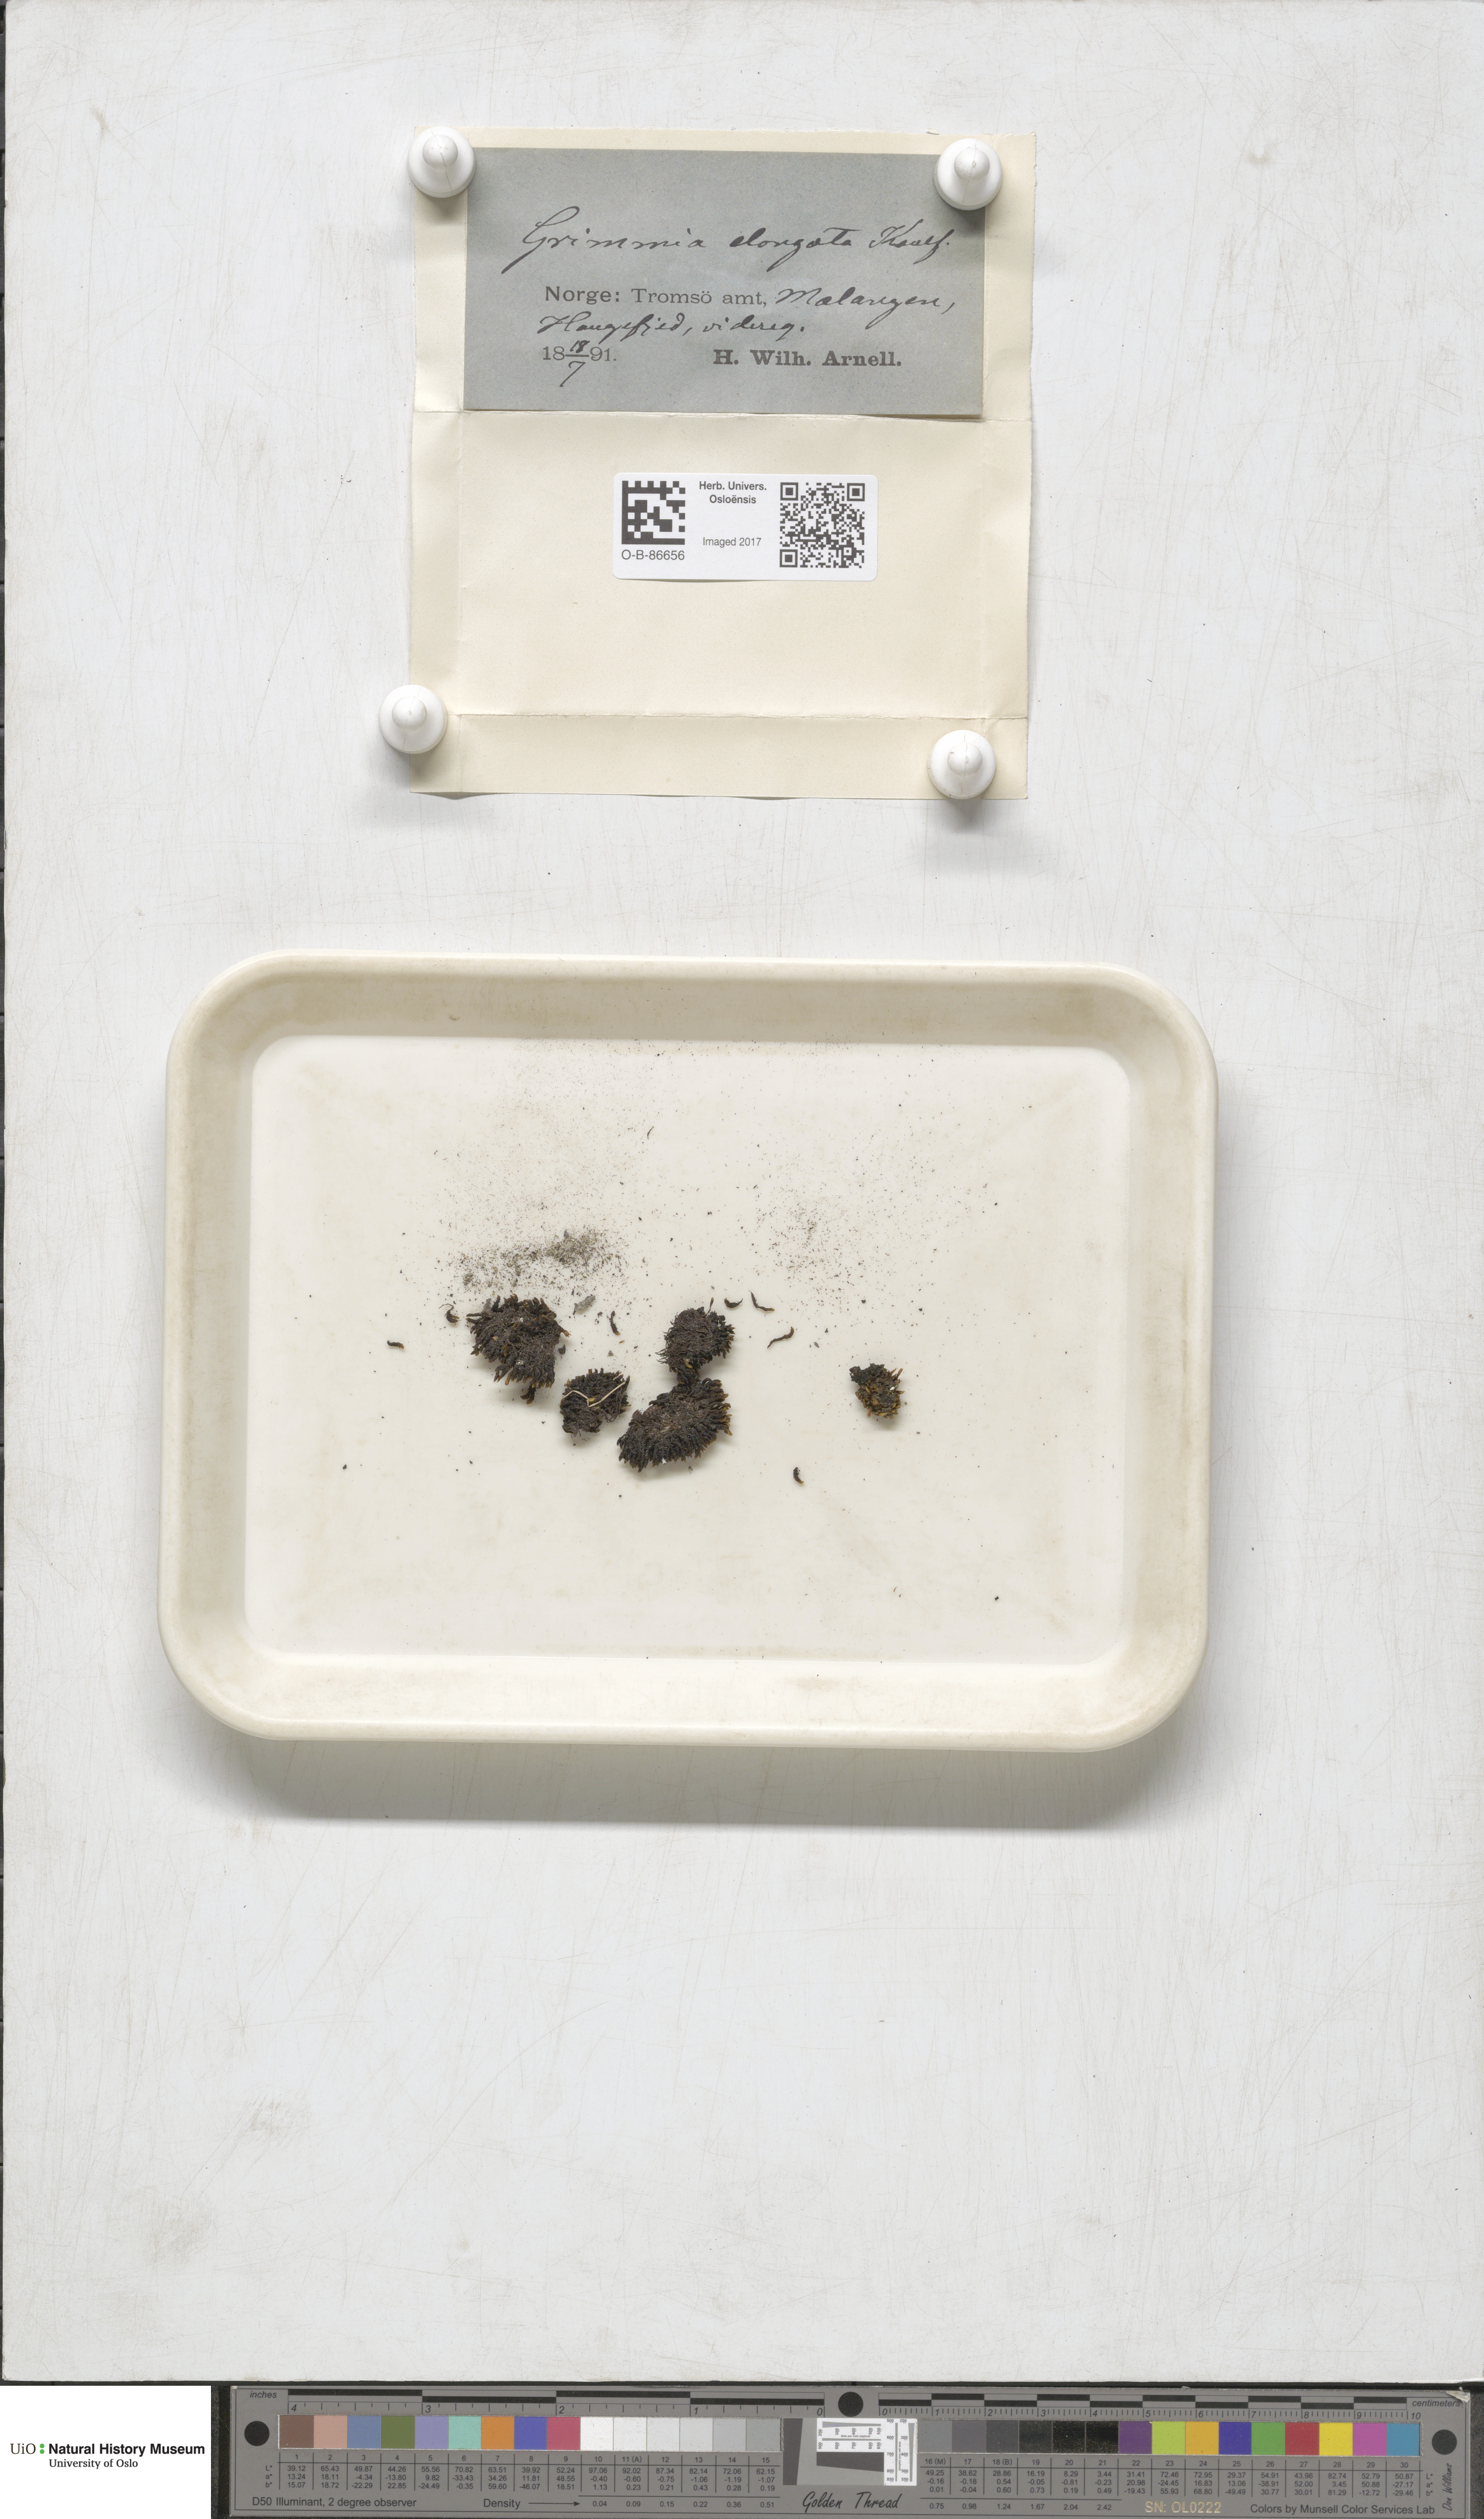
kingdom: Plantae
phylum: Bryophyta
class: Bryopsida
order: Grimmiales
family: Grimmiaceae
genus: Grimmia
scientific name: Grimmia elongata
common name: Brown grimmia
